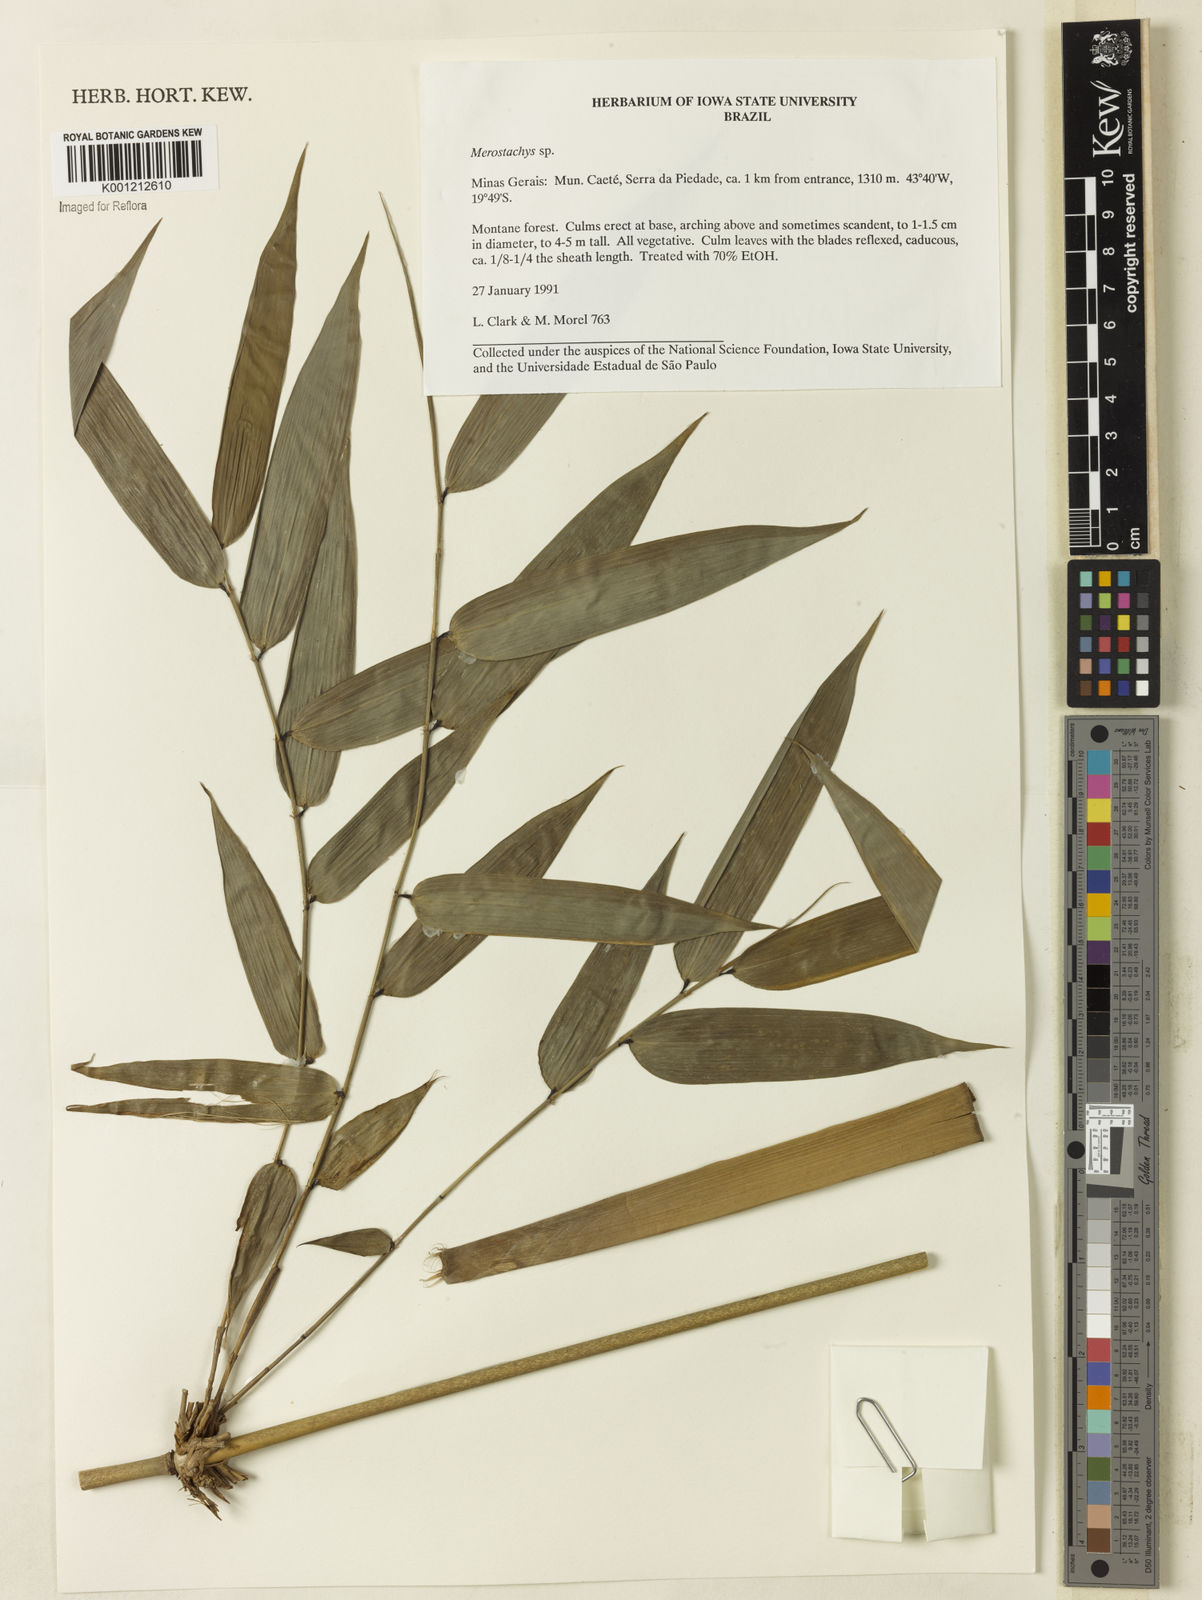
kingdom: Plantae
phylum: Tracheophyta
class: Liliopsida
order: Poales
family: Poaceae
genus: Merostachys
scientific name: Merostachys
